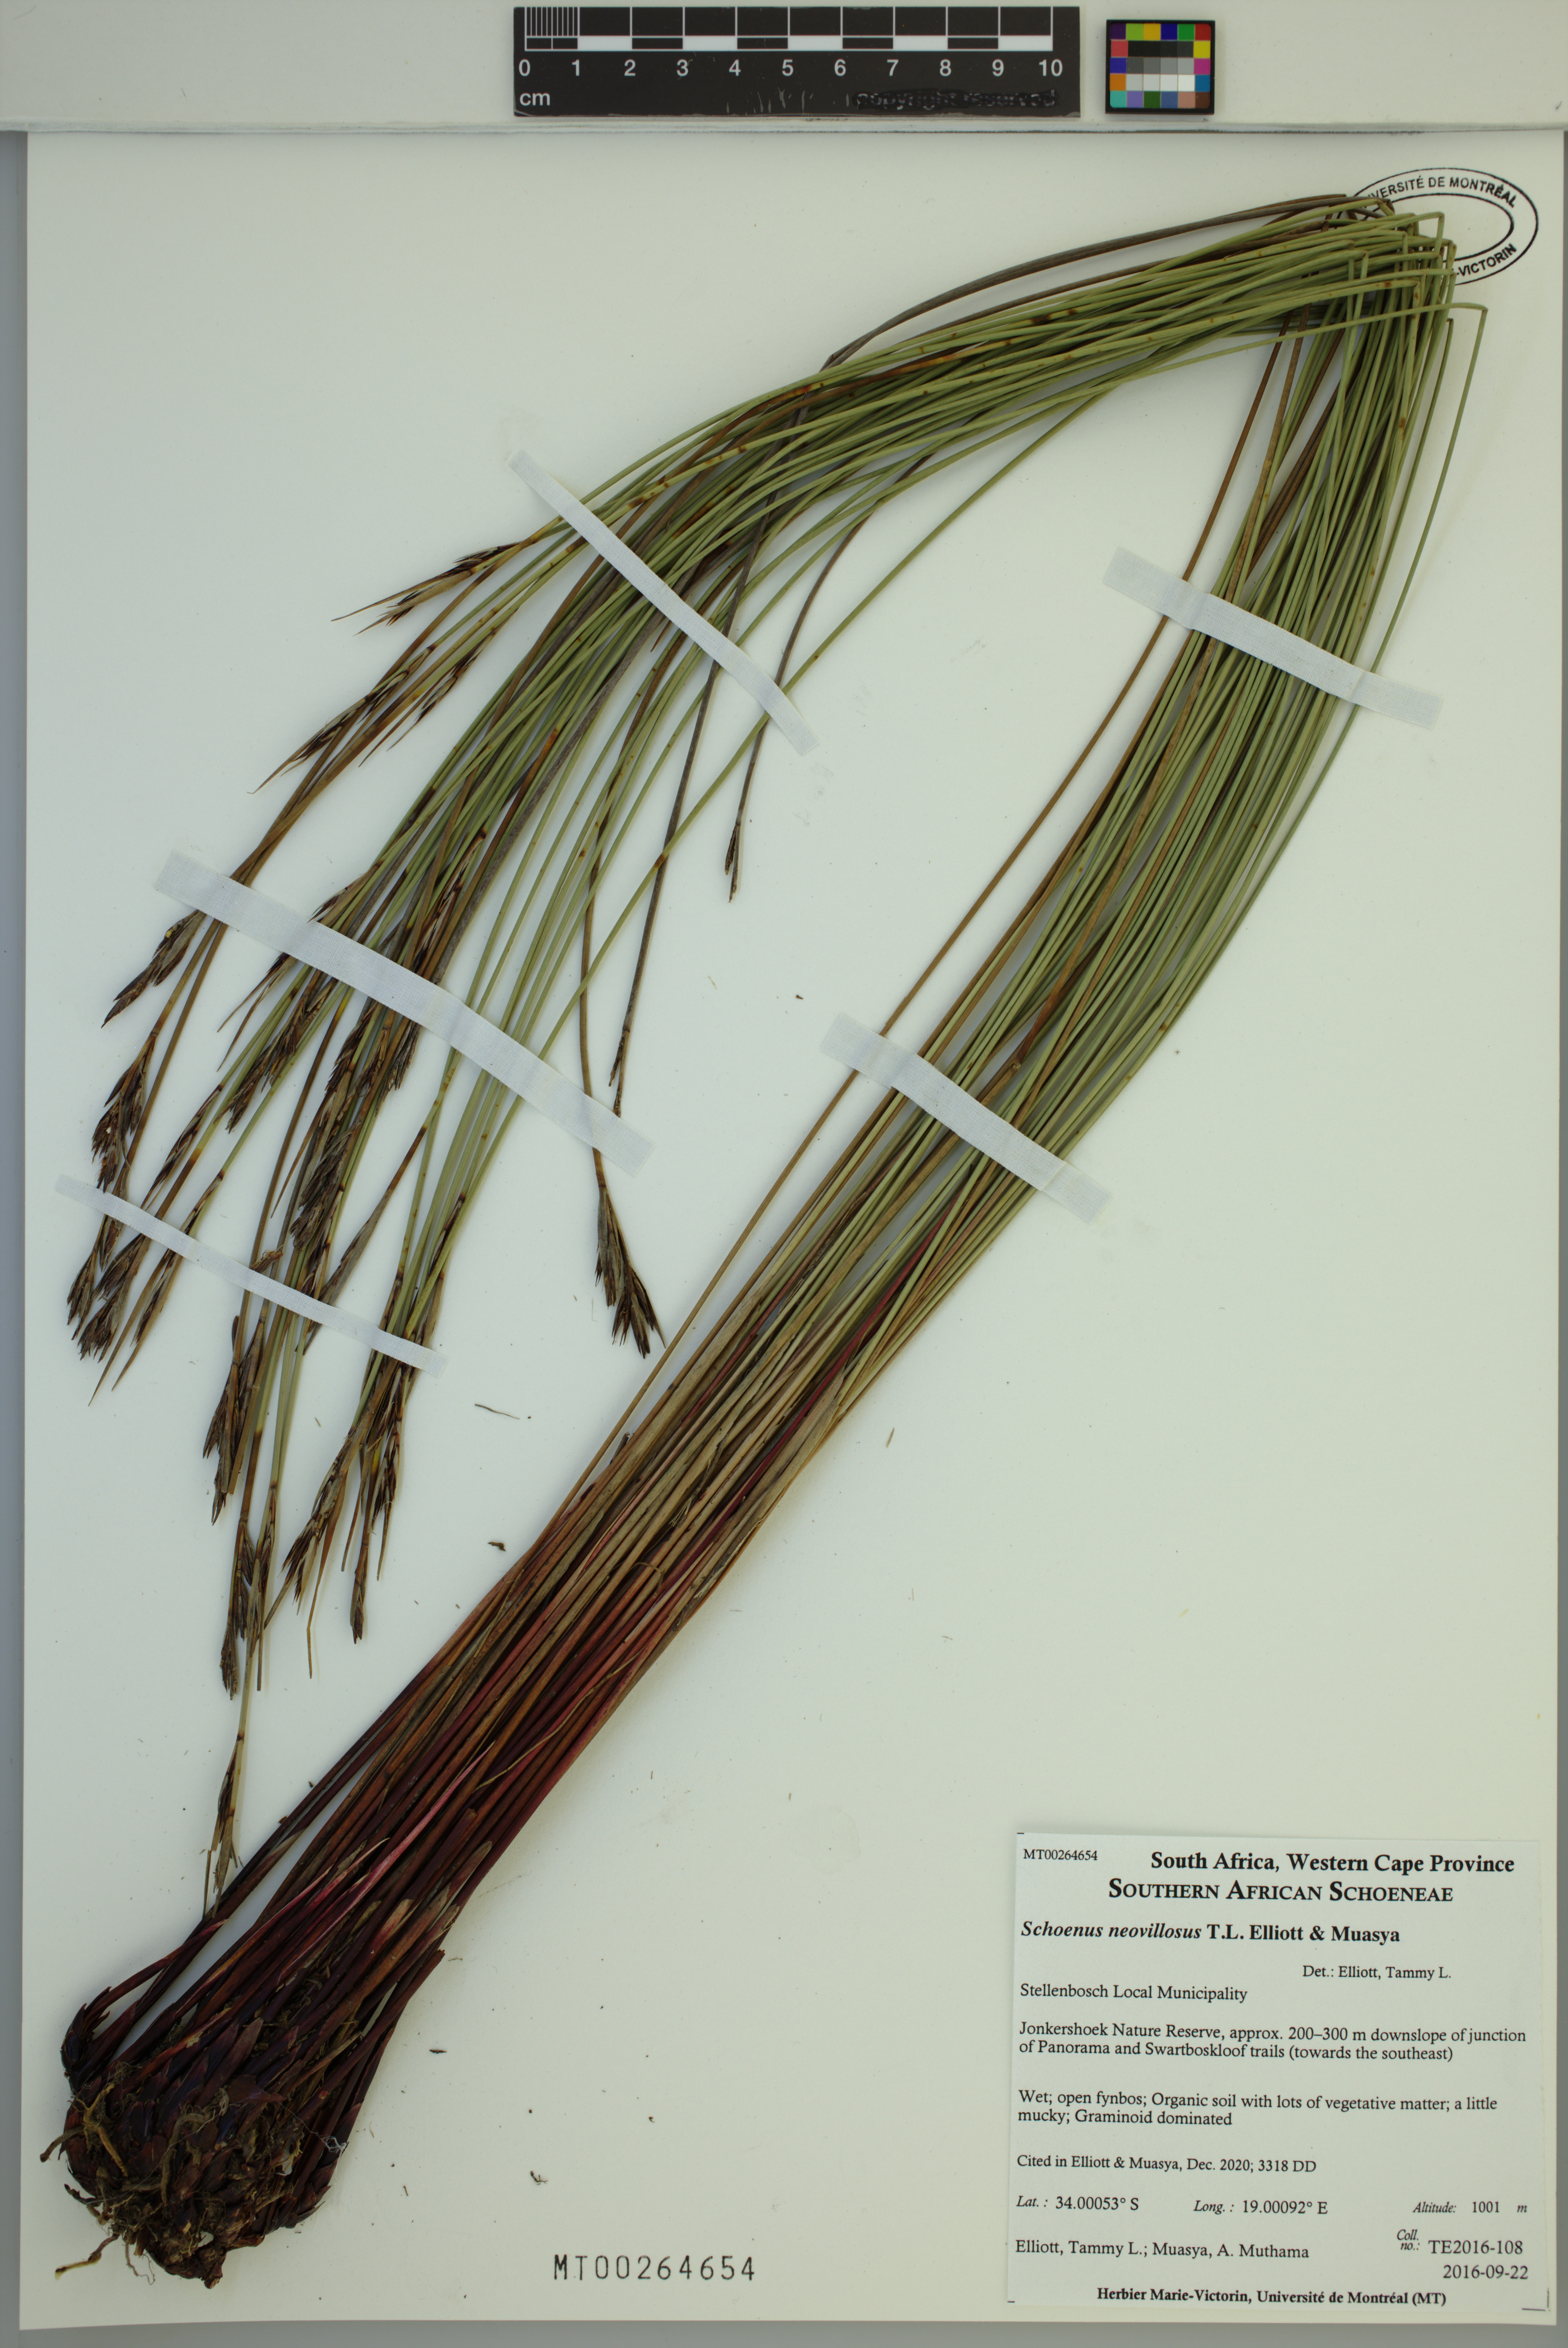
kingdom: Plantae
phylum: Tracheophyta
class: Liliopsida
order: Poales
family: Cyperaceae
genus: Schoenus
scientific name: Schoenus neovillosus
